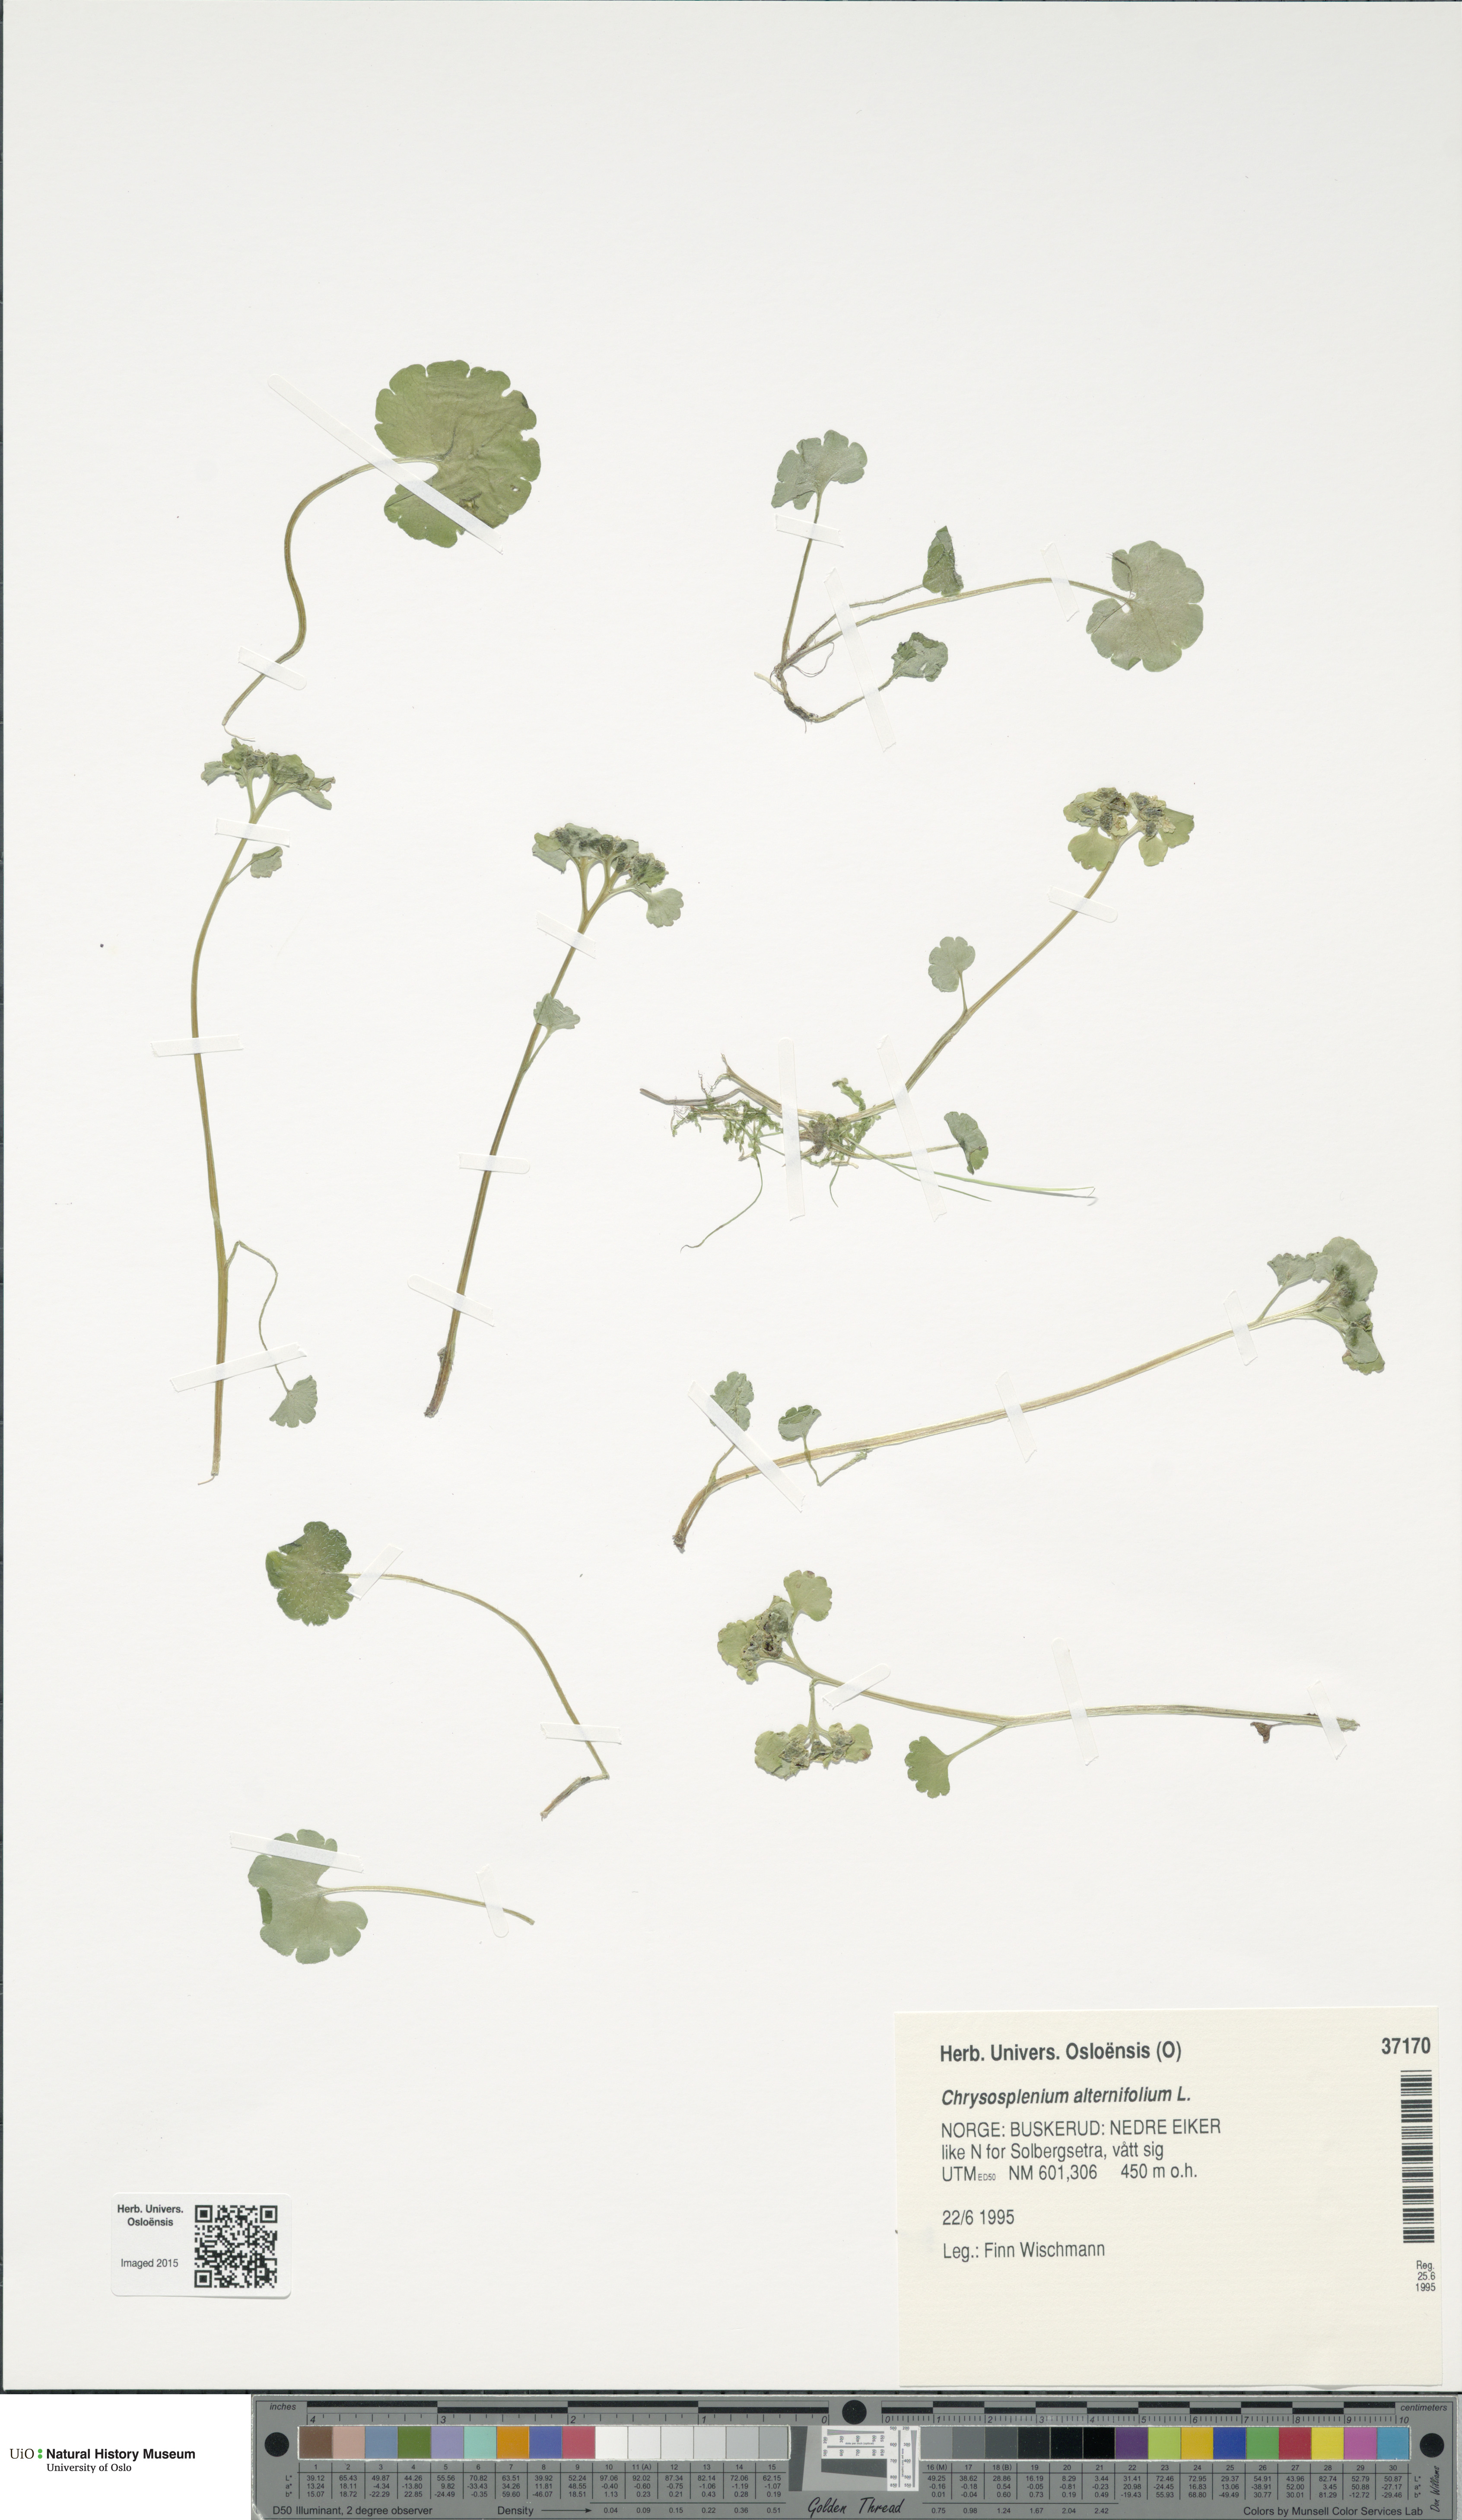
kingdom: Plantae
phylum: Tracheophyta
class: Magnoliopsida
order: Saxifragales
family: Saxifragaceae
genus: Chrysosplenium
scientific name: Chrysosplenium alternifolium
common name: Alternate-leaved golden-saxifrage
